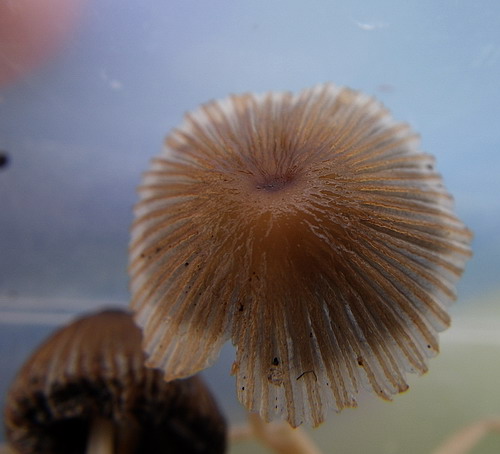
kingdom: Fungi
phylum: Basidiomycota
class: Agaricomycetes
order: Agaricales
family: Psathyrellaceae
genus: Parasola
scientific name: Parasola auricoma
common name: hansens hjulhat
